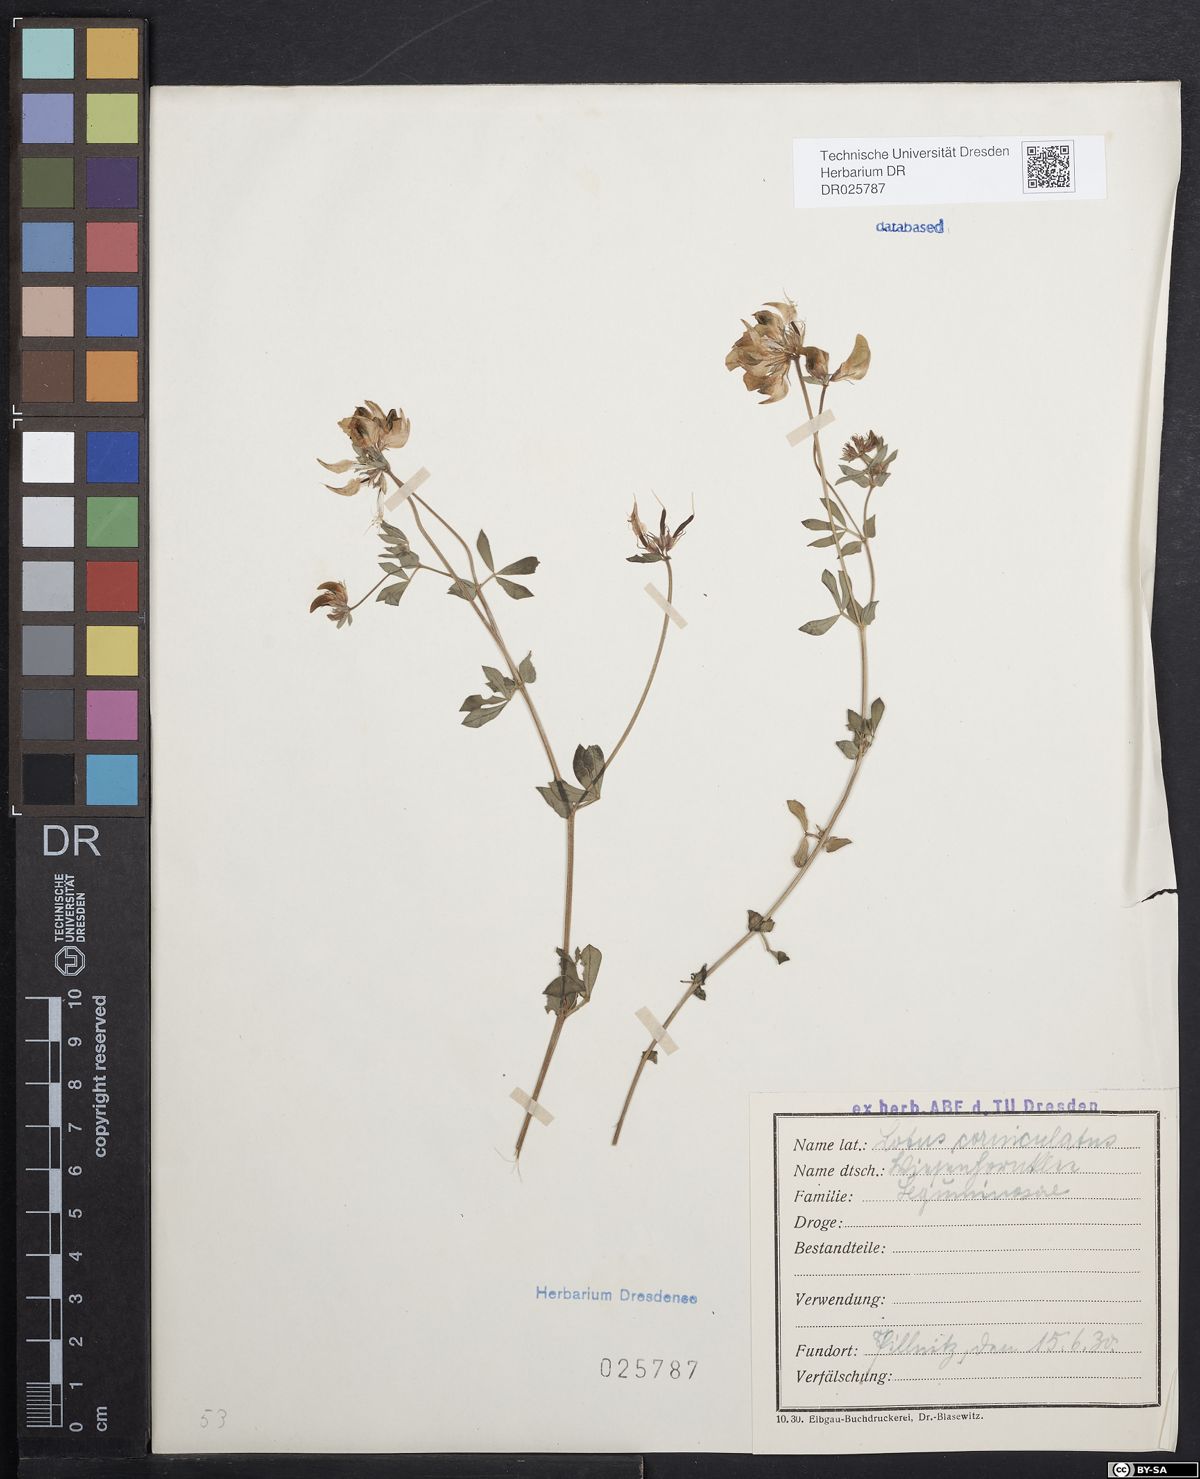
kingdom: Plantae
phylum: Tracheophyta
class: Magnoliopsida
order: Fabales
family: Fabaceae
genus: Lotus
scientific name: Lotus corniculatus
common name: Common bird's-foot-trefoil
